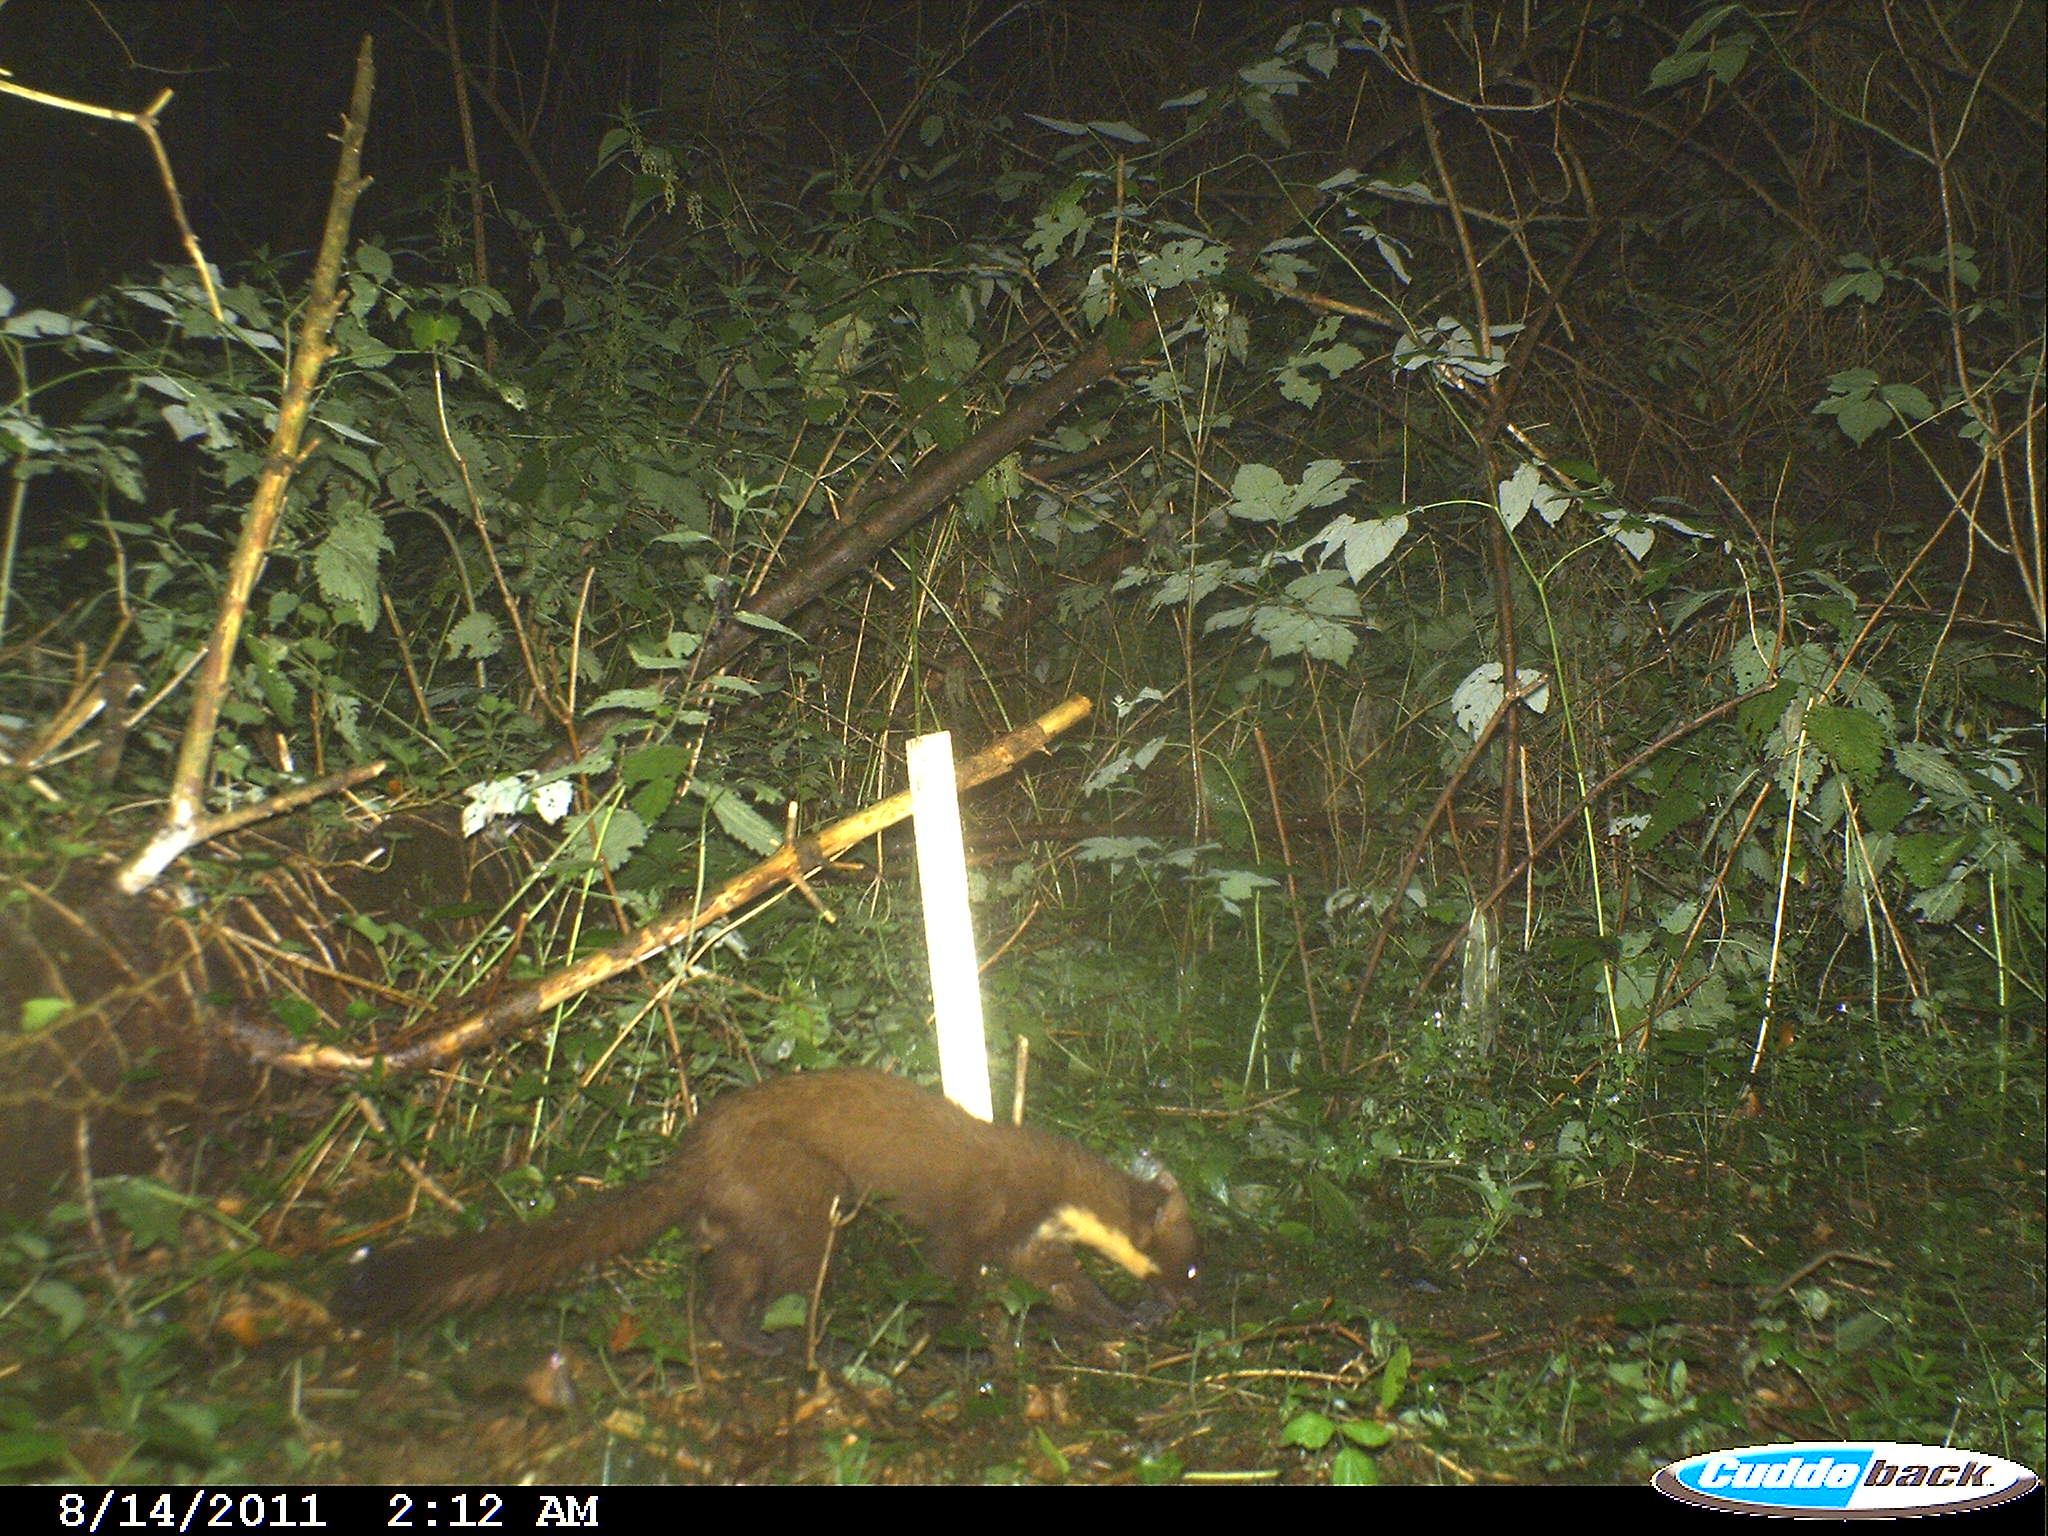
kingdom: Animalia
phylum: Chordata
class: Mammalia
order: Carnivora
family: Mustelidae
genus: Martes
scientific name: Martes martes
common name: European pine marten
